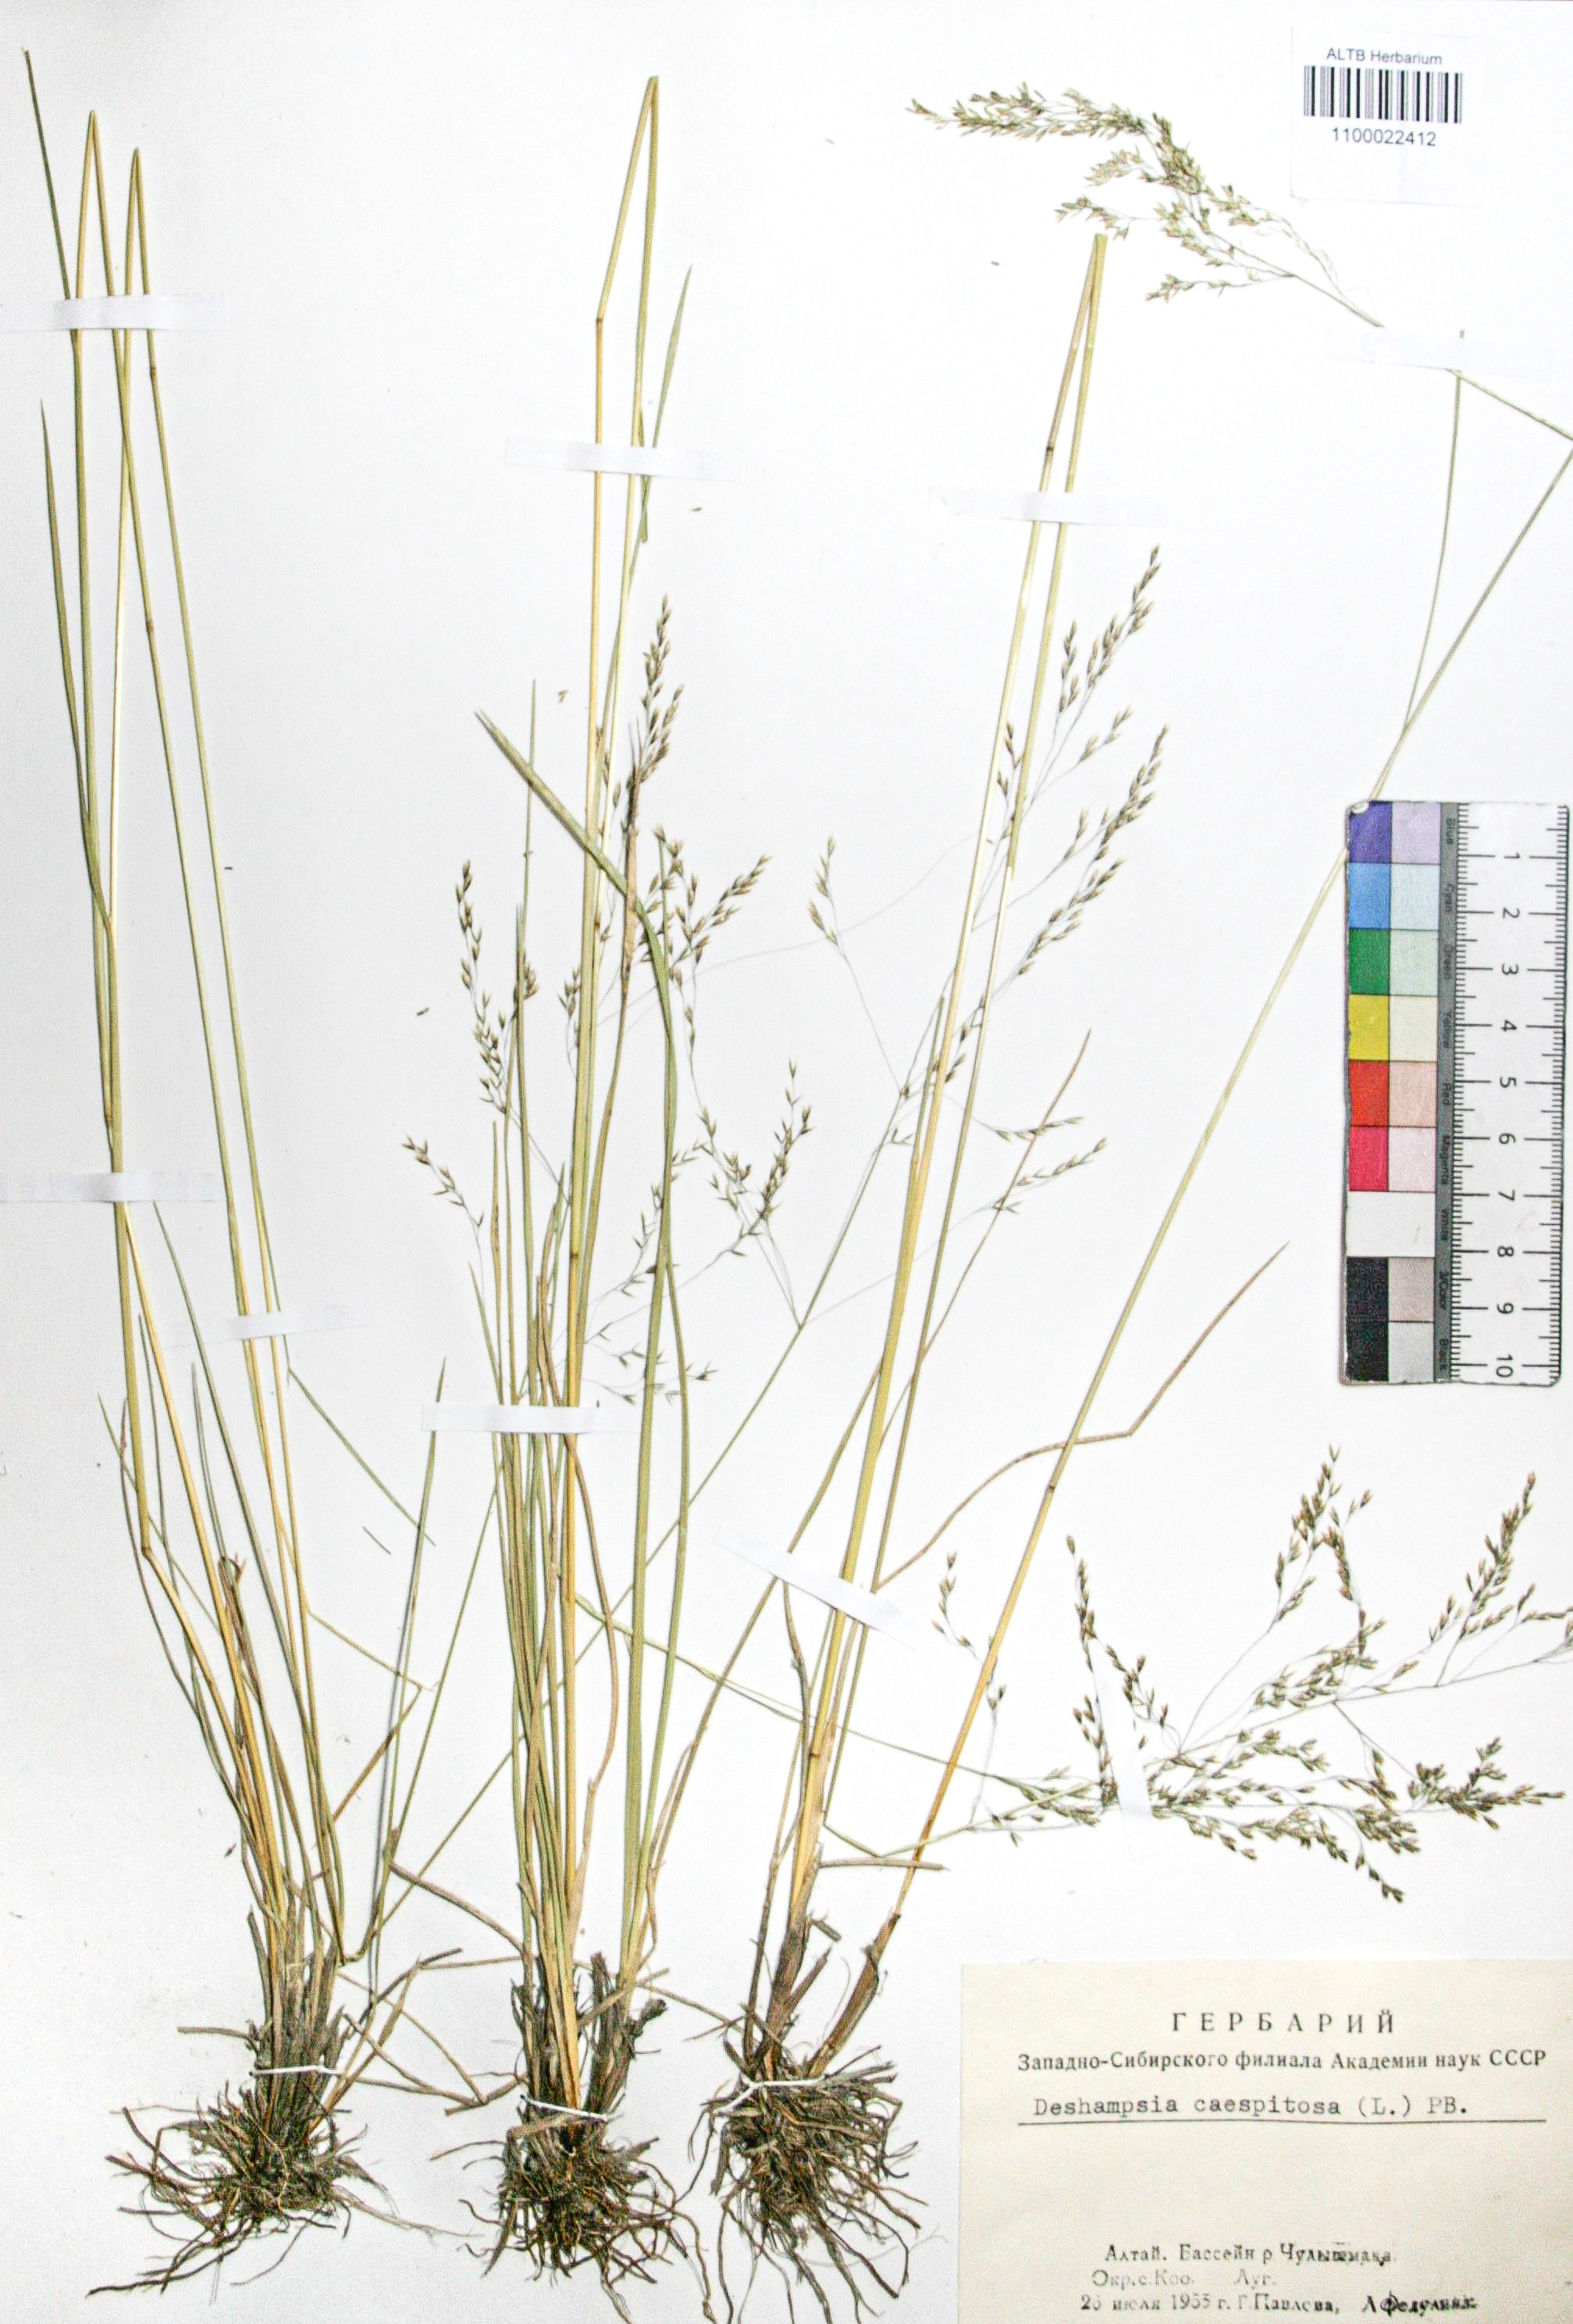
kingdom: Plantae
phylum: Tracheophyta
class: Liliopsida
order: Poales
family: Poaceae
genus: Deschampsia
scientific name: Deschampsia cespitosa
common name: Tufted hair-grass
